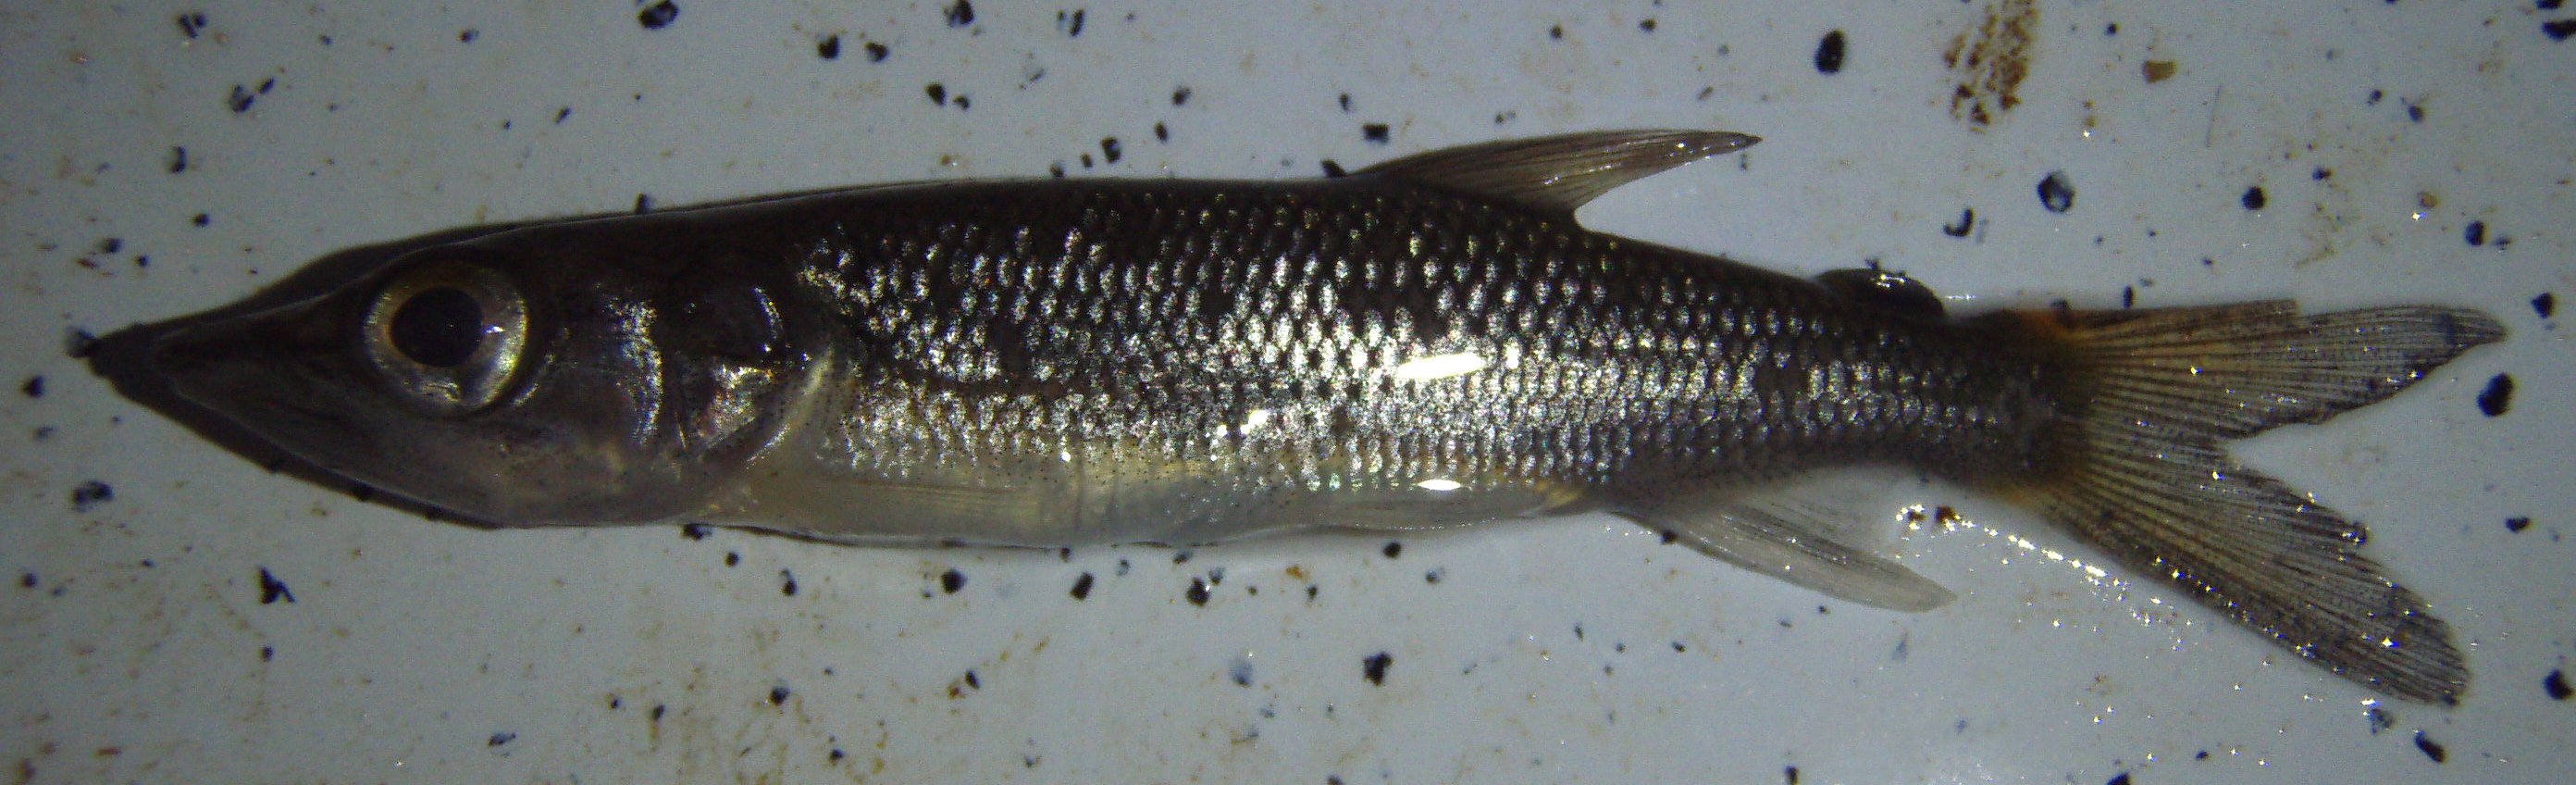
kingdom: Animalia
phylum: Chordata
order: Characiformes
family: Hepsetidae
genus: Hepsetus
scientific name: Hepsetus
